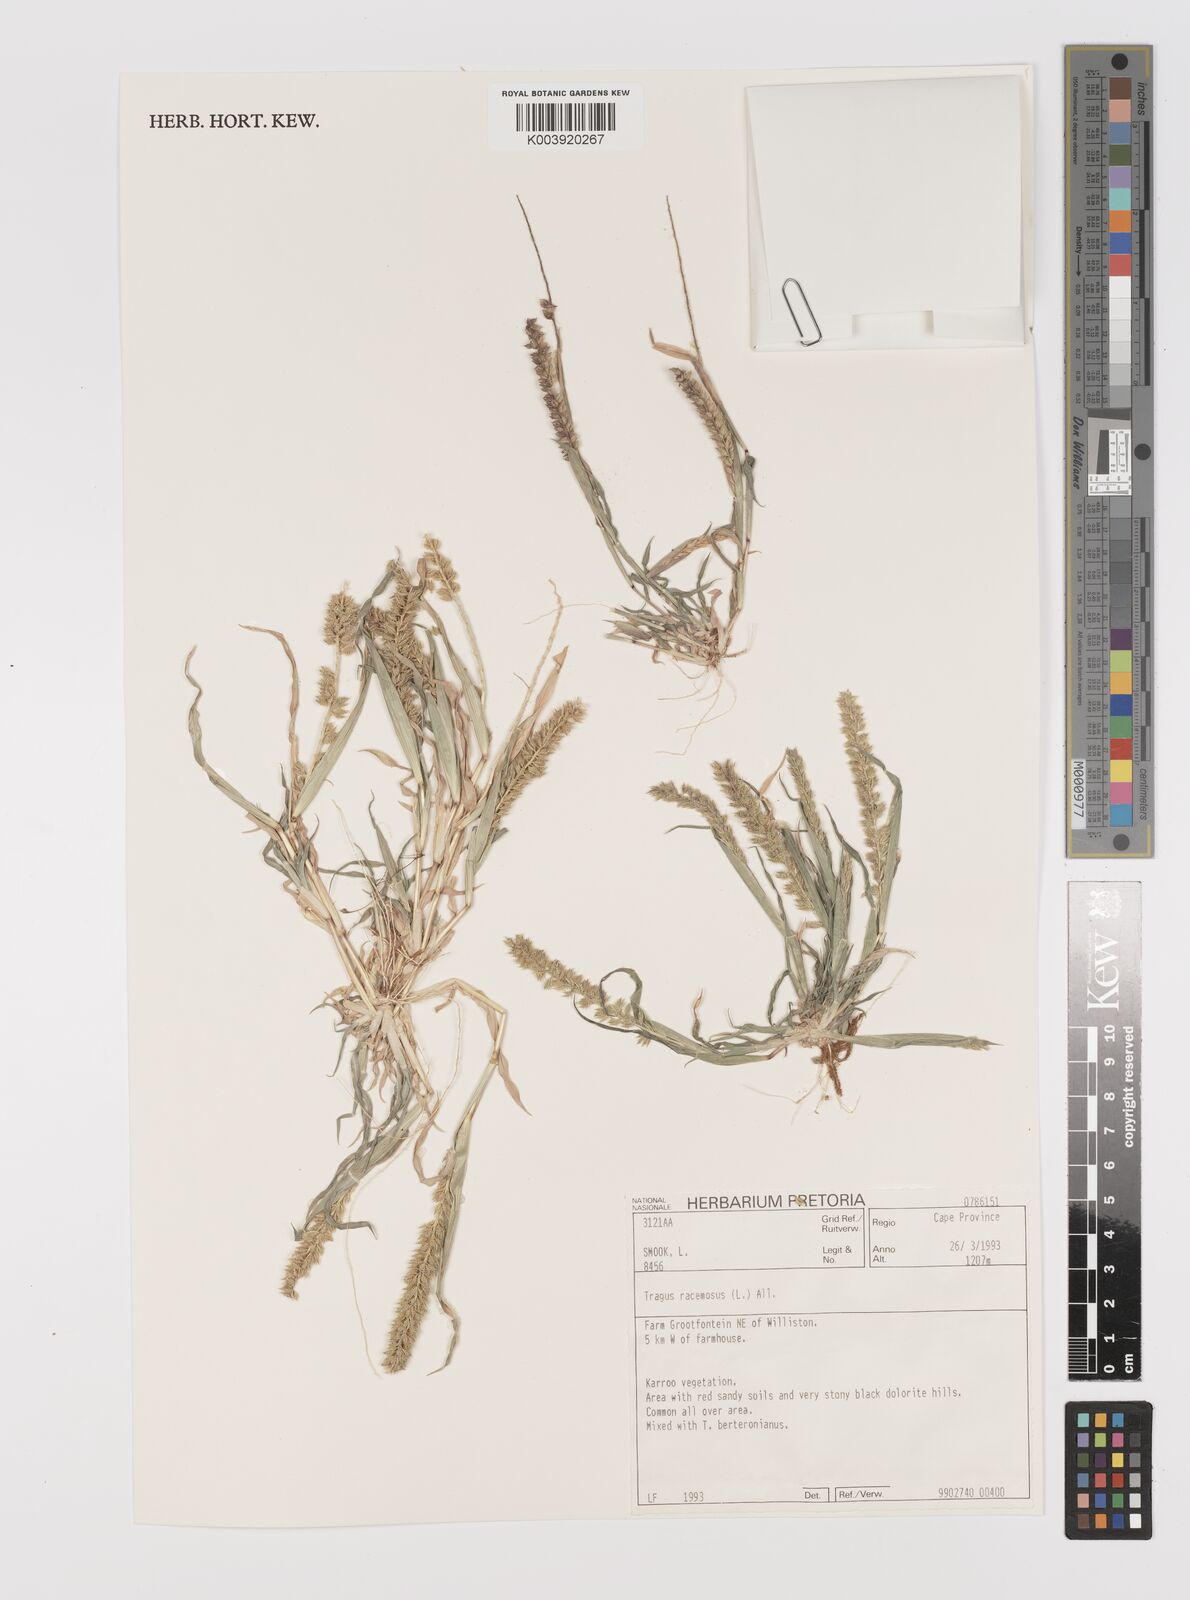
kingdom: Plantae
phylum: Tracheophyta
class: Liliopsida
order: Poales
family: Poaceae
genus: Tragus
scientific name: Tragus racemosus
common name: European bur-grass
